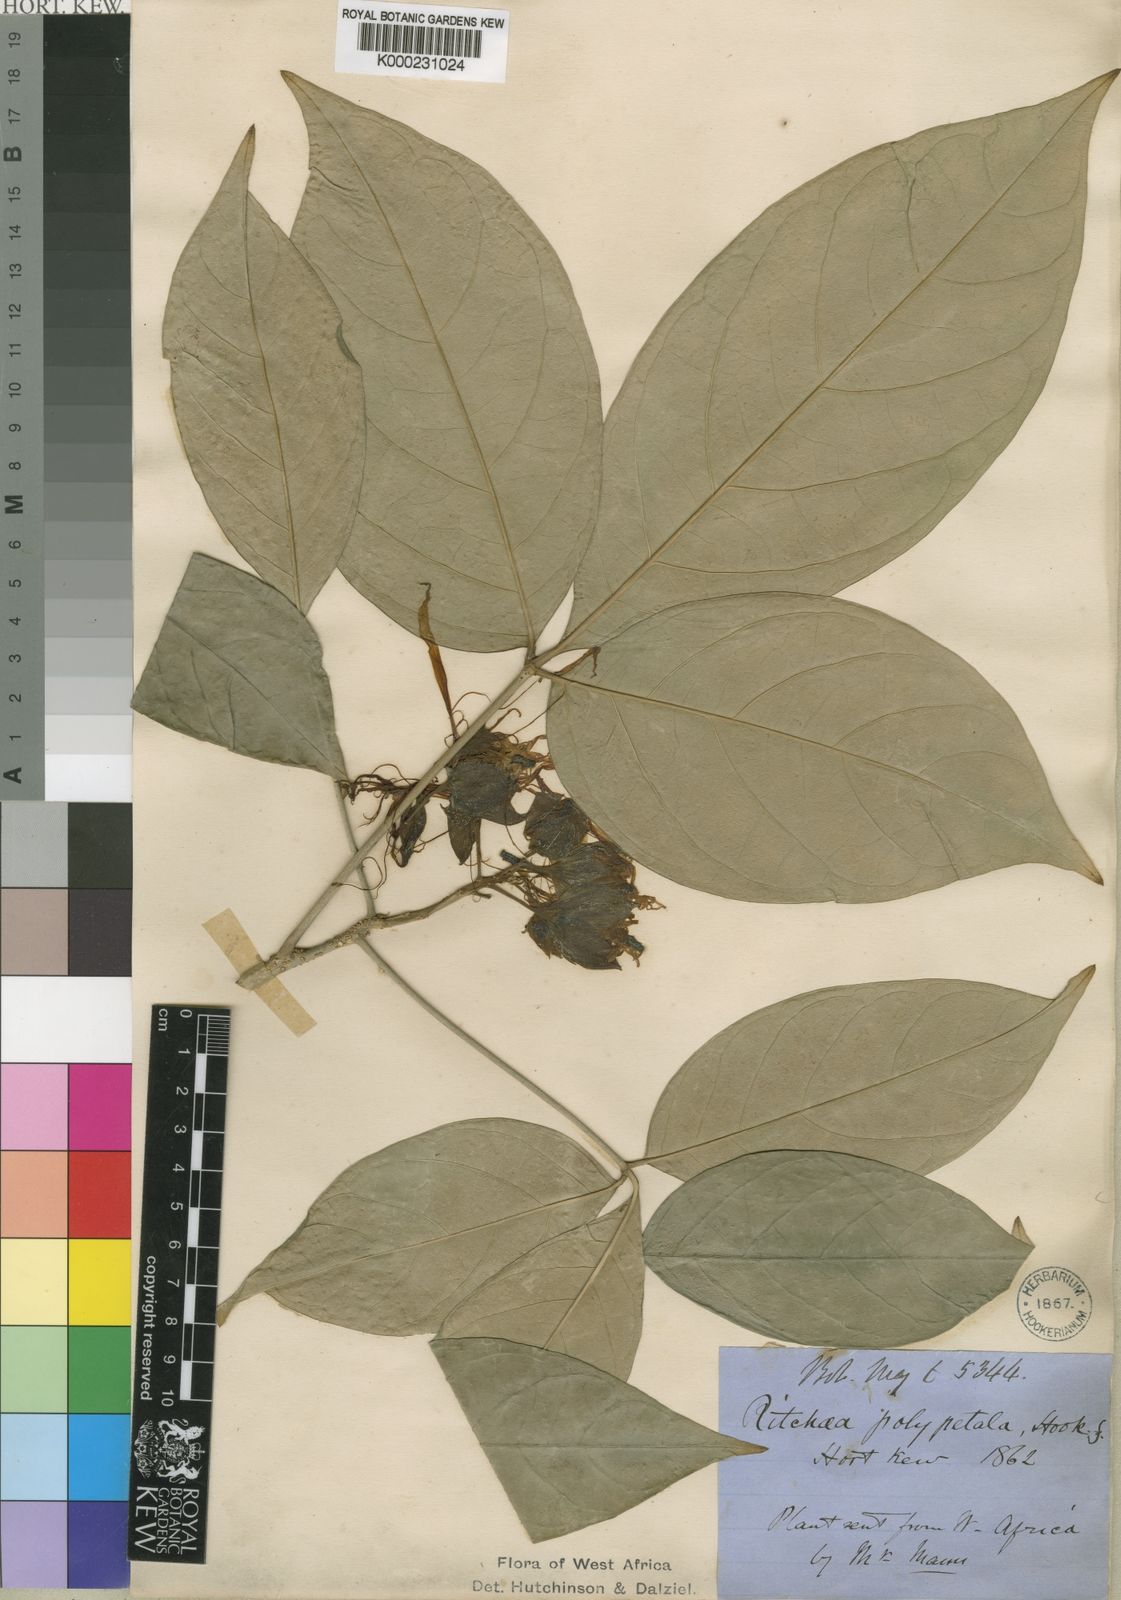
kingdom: Plantae
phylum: Tracheophyta
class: Magnoliopsida
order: Brassicales
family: Capparaceae
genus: Ritchiea
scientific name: Ritchiea erecta
